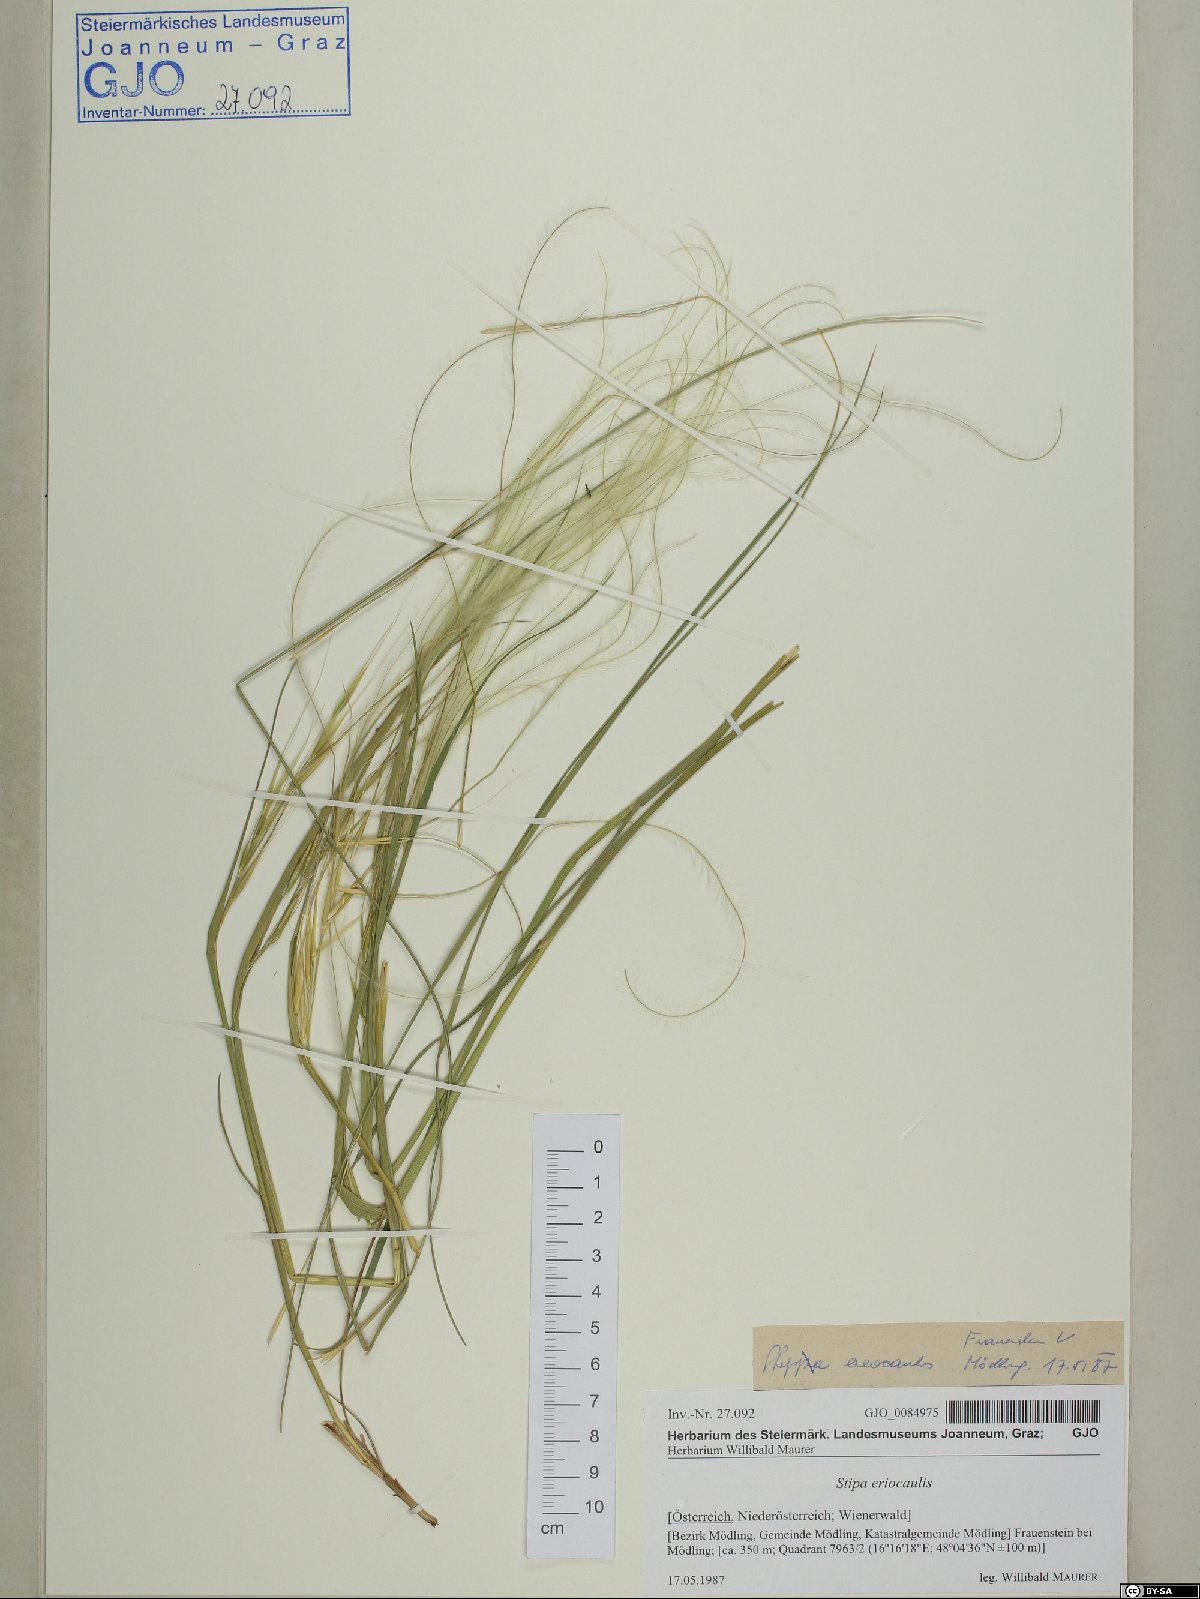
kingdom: Plantae
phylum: Tracheophyta
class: Liliopsida
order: Poales
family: Poaceae
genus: Stipa
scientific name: Stipa pennata
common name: European feather grass
